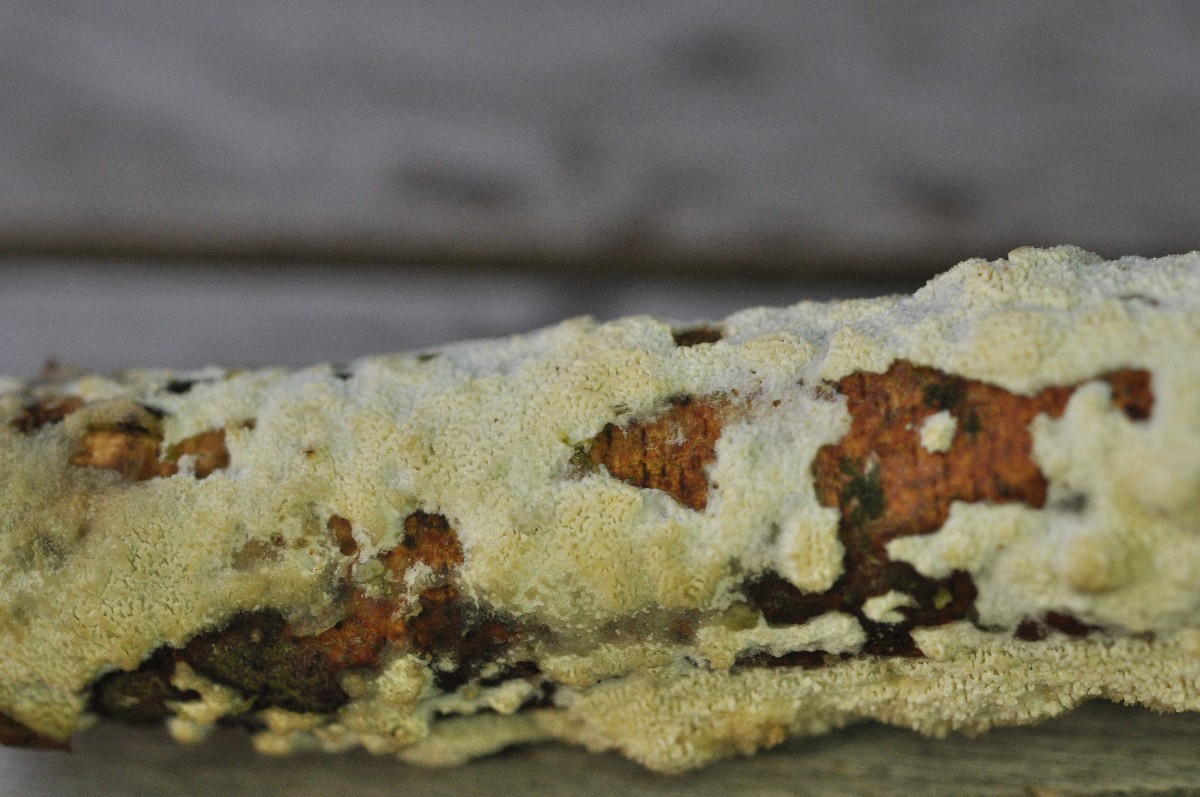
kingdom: Fungi
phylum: Basidiomycota
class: Agaricomycetes
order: Hymenochaetales
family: Schizoporaceae
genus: Xylodon
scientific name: Xylodon subtropicus
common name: labyrint-tandsvamp
